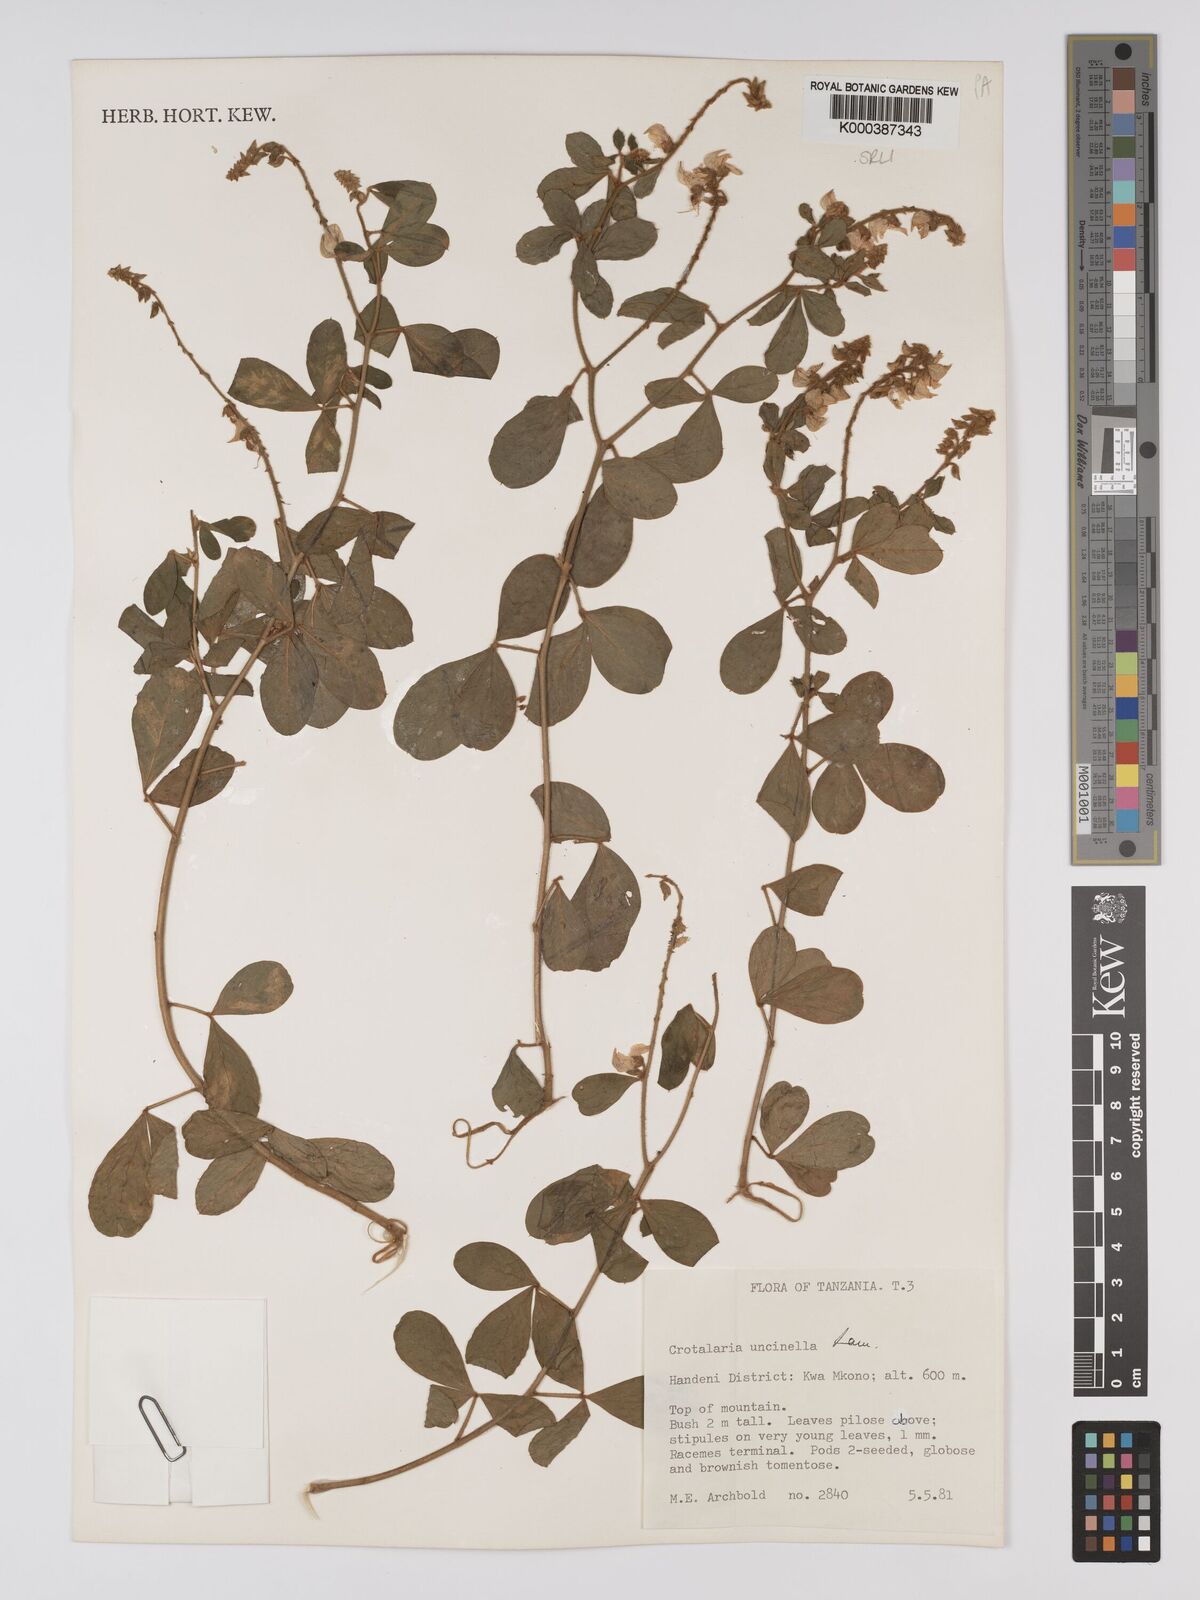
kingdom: Plantae
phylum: Tracheophyta
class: Magnoliopsida
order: Fabales
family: Fabaceae
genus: Crotalaria
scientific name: Crotalaria uncinella
